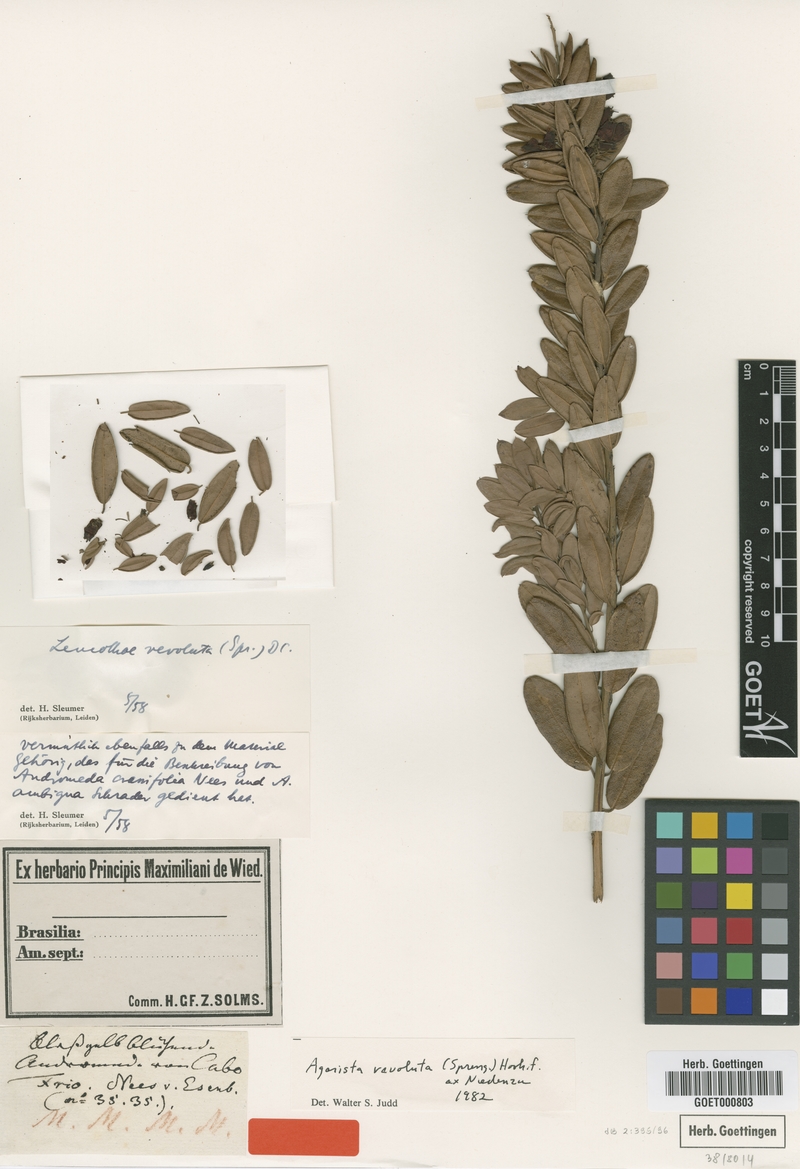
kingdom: Plantae
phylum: Tracheophyta
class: Magnoliopsida
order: Ericales
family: Ericaceae
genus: Agarista
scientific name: Agarista revoluta
